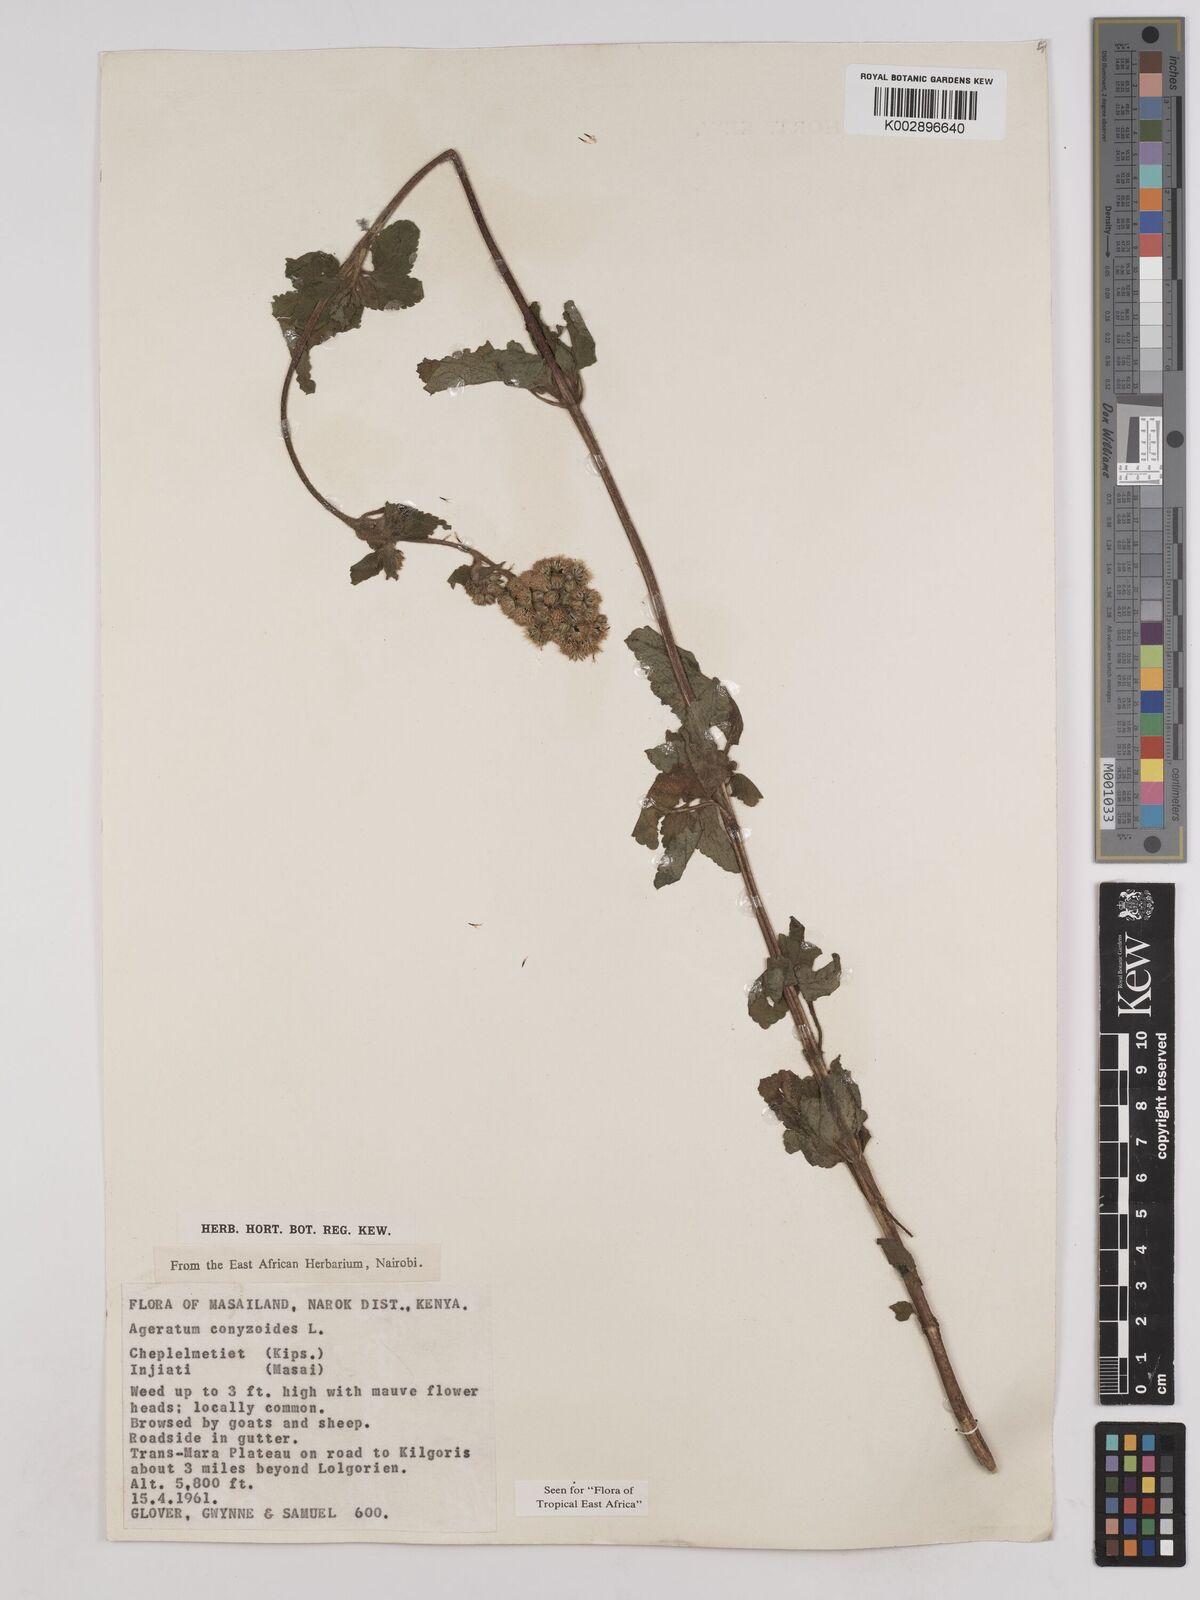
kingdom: Plantae
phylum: Tracheophyta
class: Magnoliopsida
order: Asterales
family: Asteraceae
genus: Ageratum
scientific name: Ageratum conyzoides
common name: Tropical whiteweed
